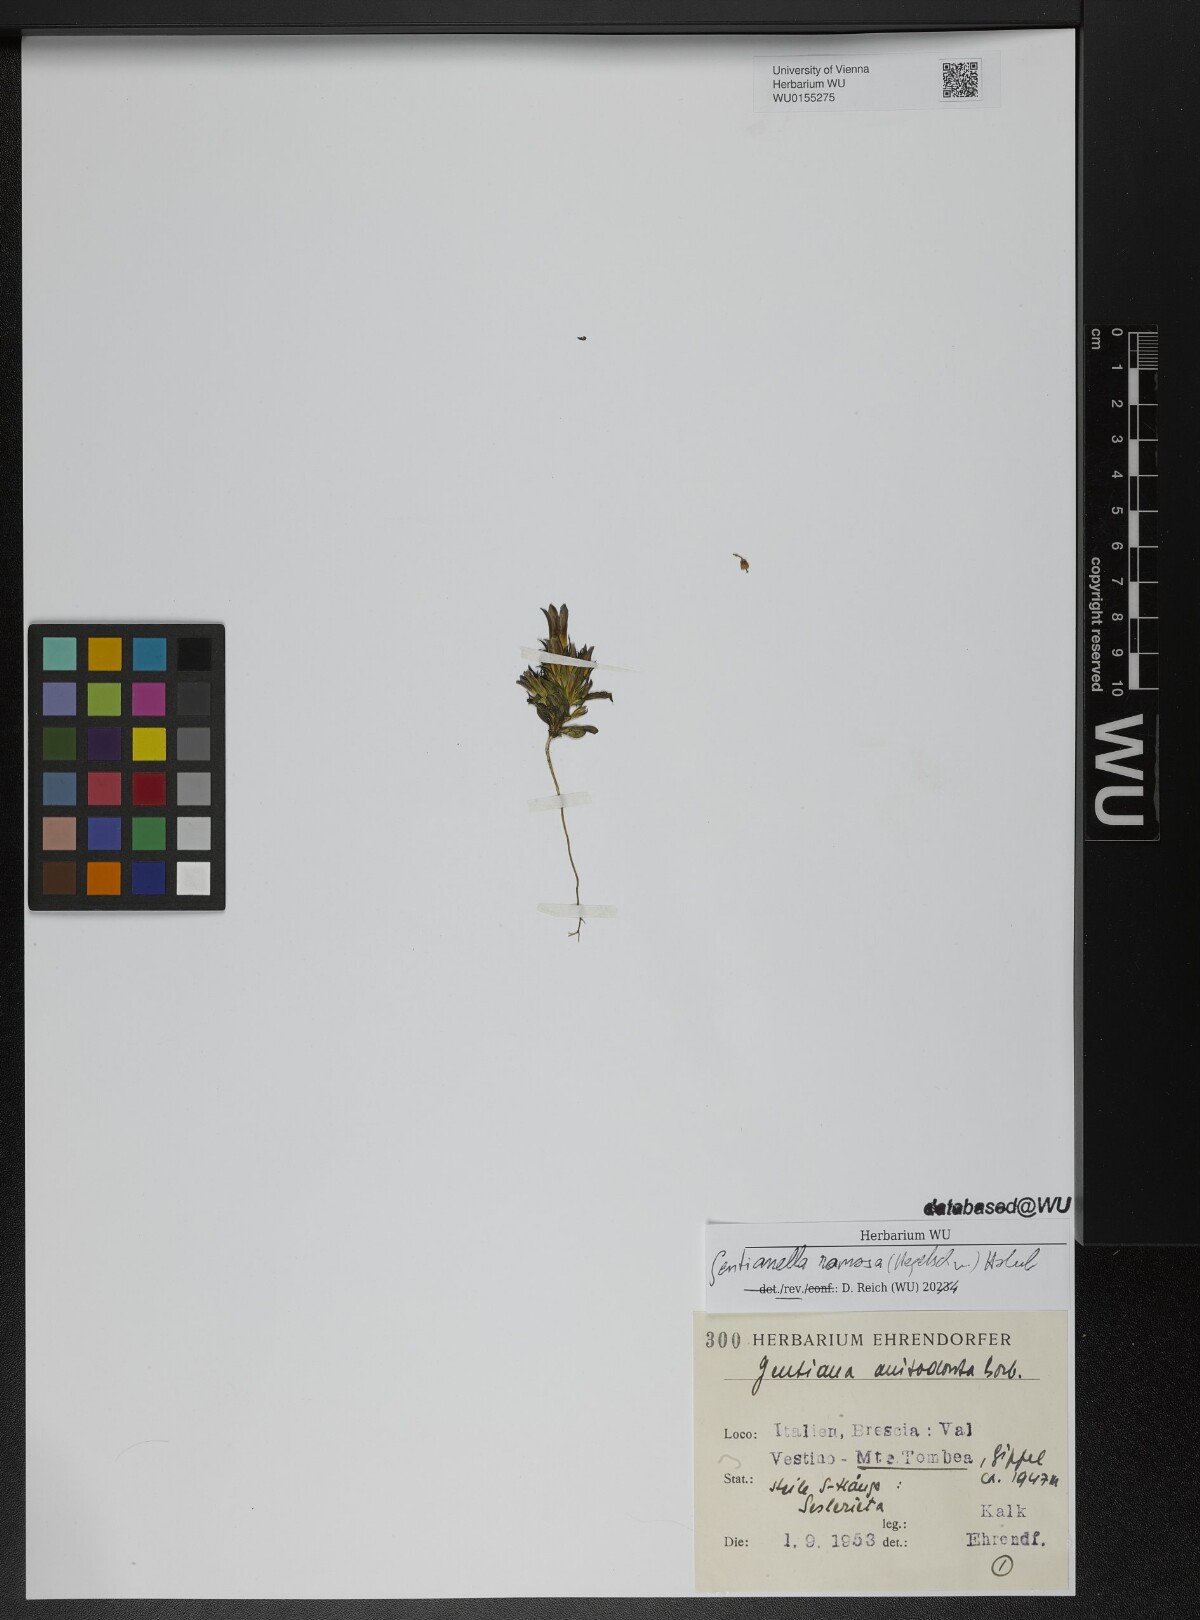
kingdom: Plantae
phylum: Tracheophyta
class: Magnoliopsida
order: Gentianales
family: Gentianaceae
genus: Gentianella
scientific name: Gentianella ramosa
